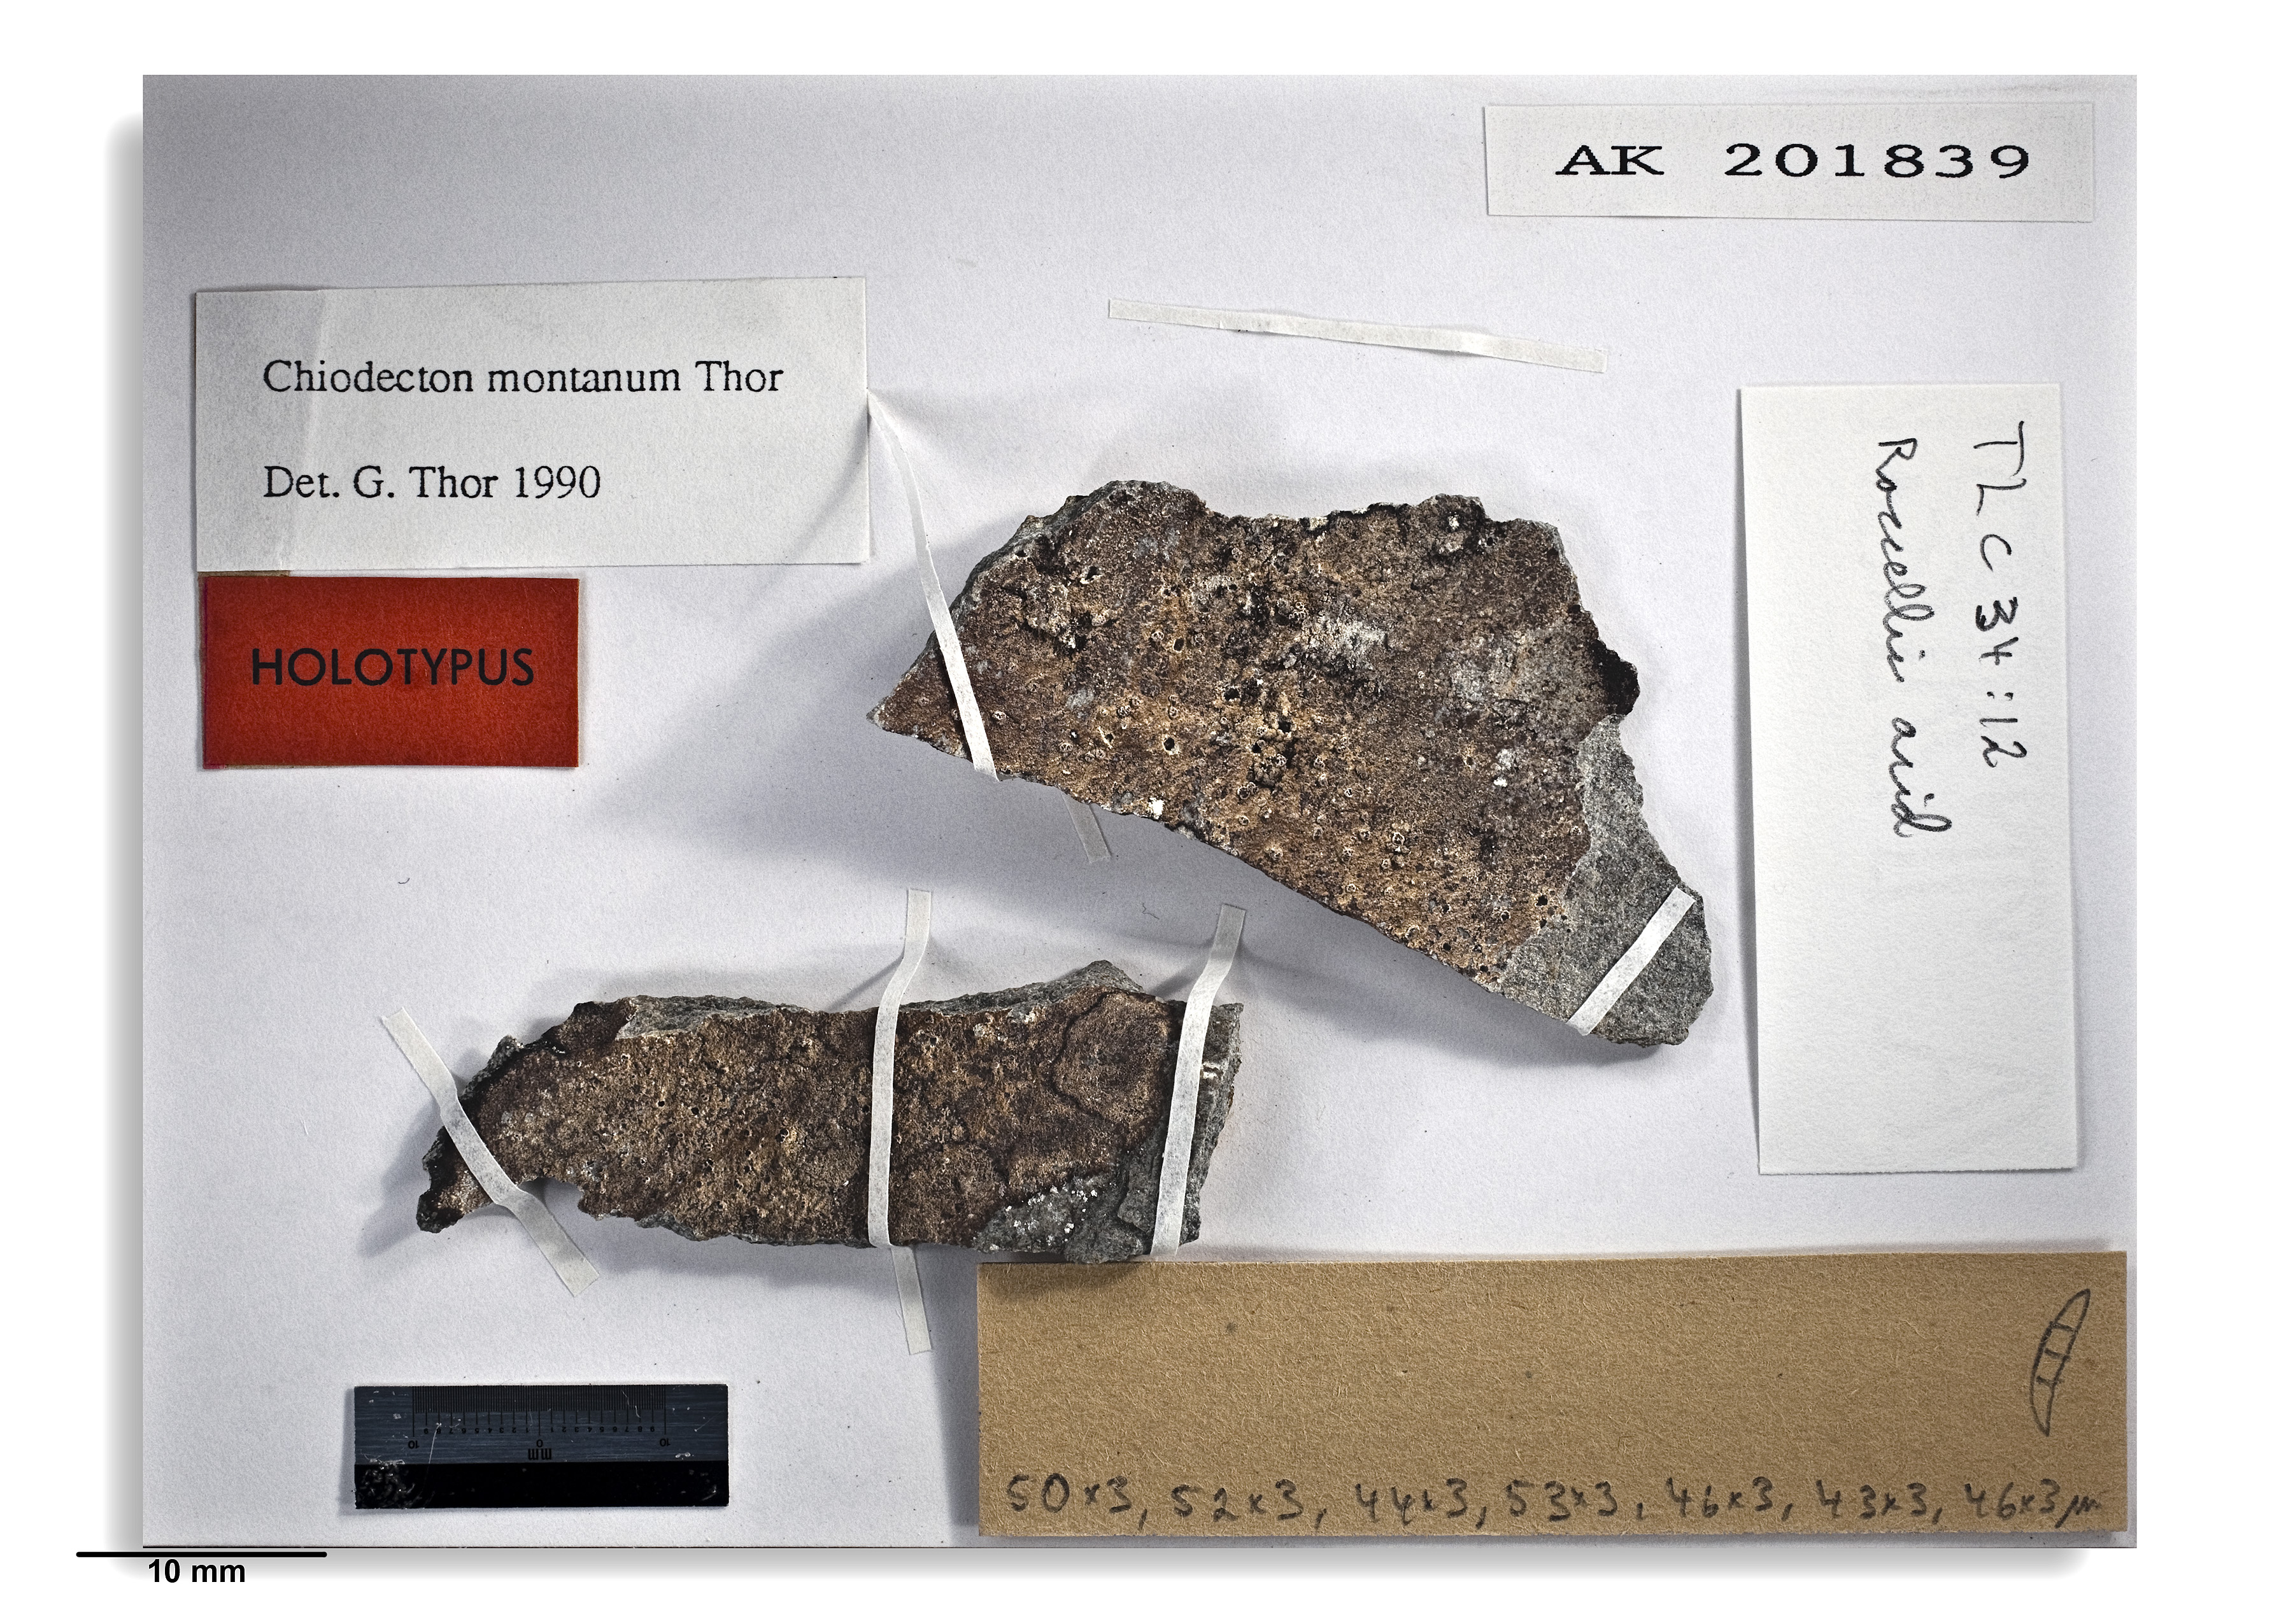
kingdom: Fungi
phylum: Ascomycota
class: Arthoniomycetes
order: Arthoniales
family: Roccellaceae
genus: Chiodecton
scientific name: Chiodecton montanum
